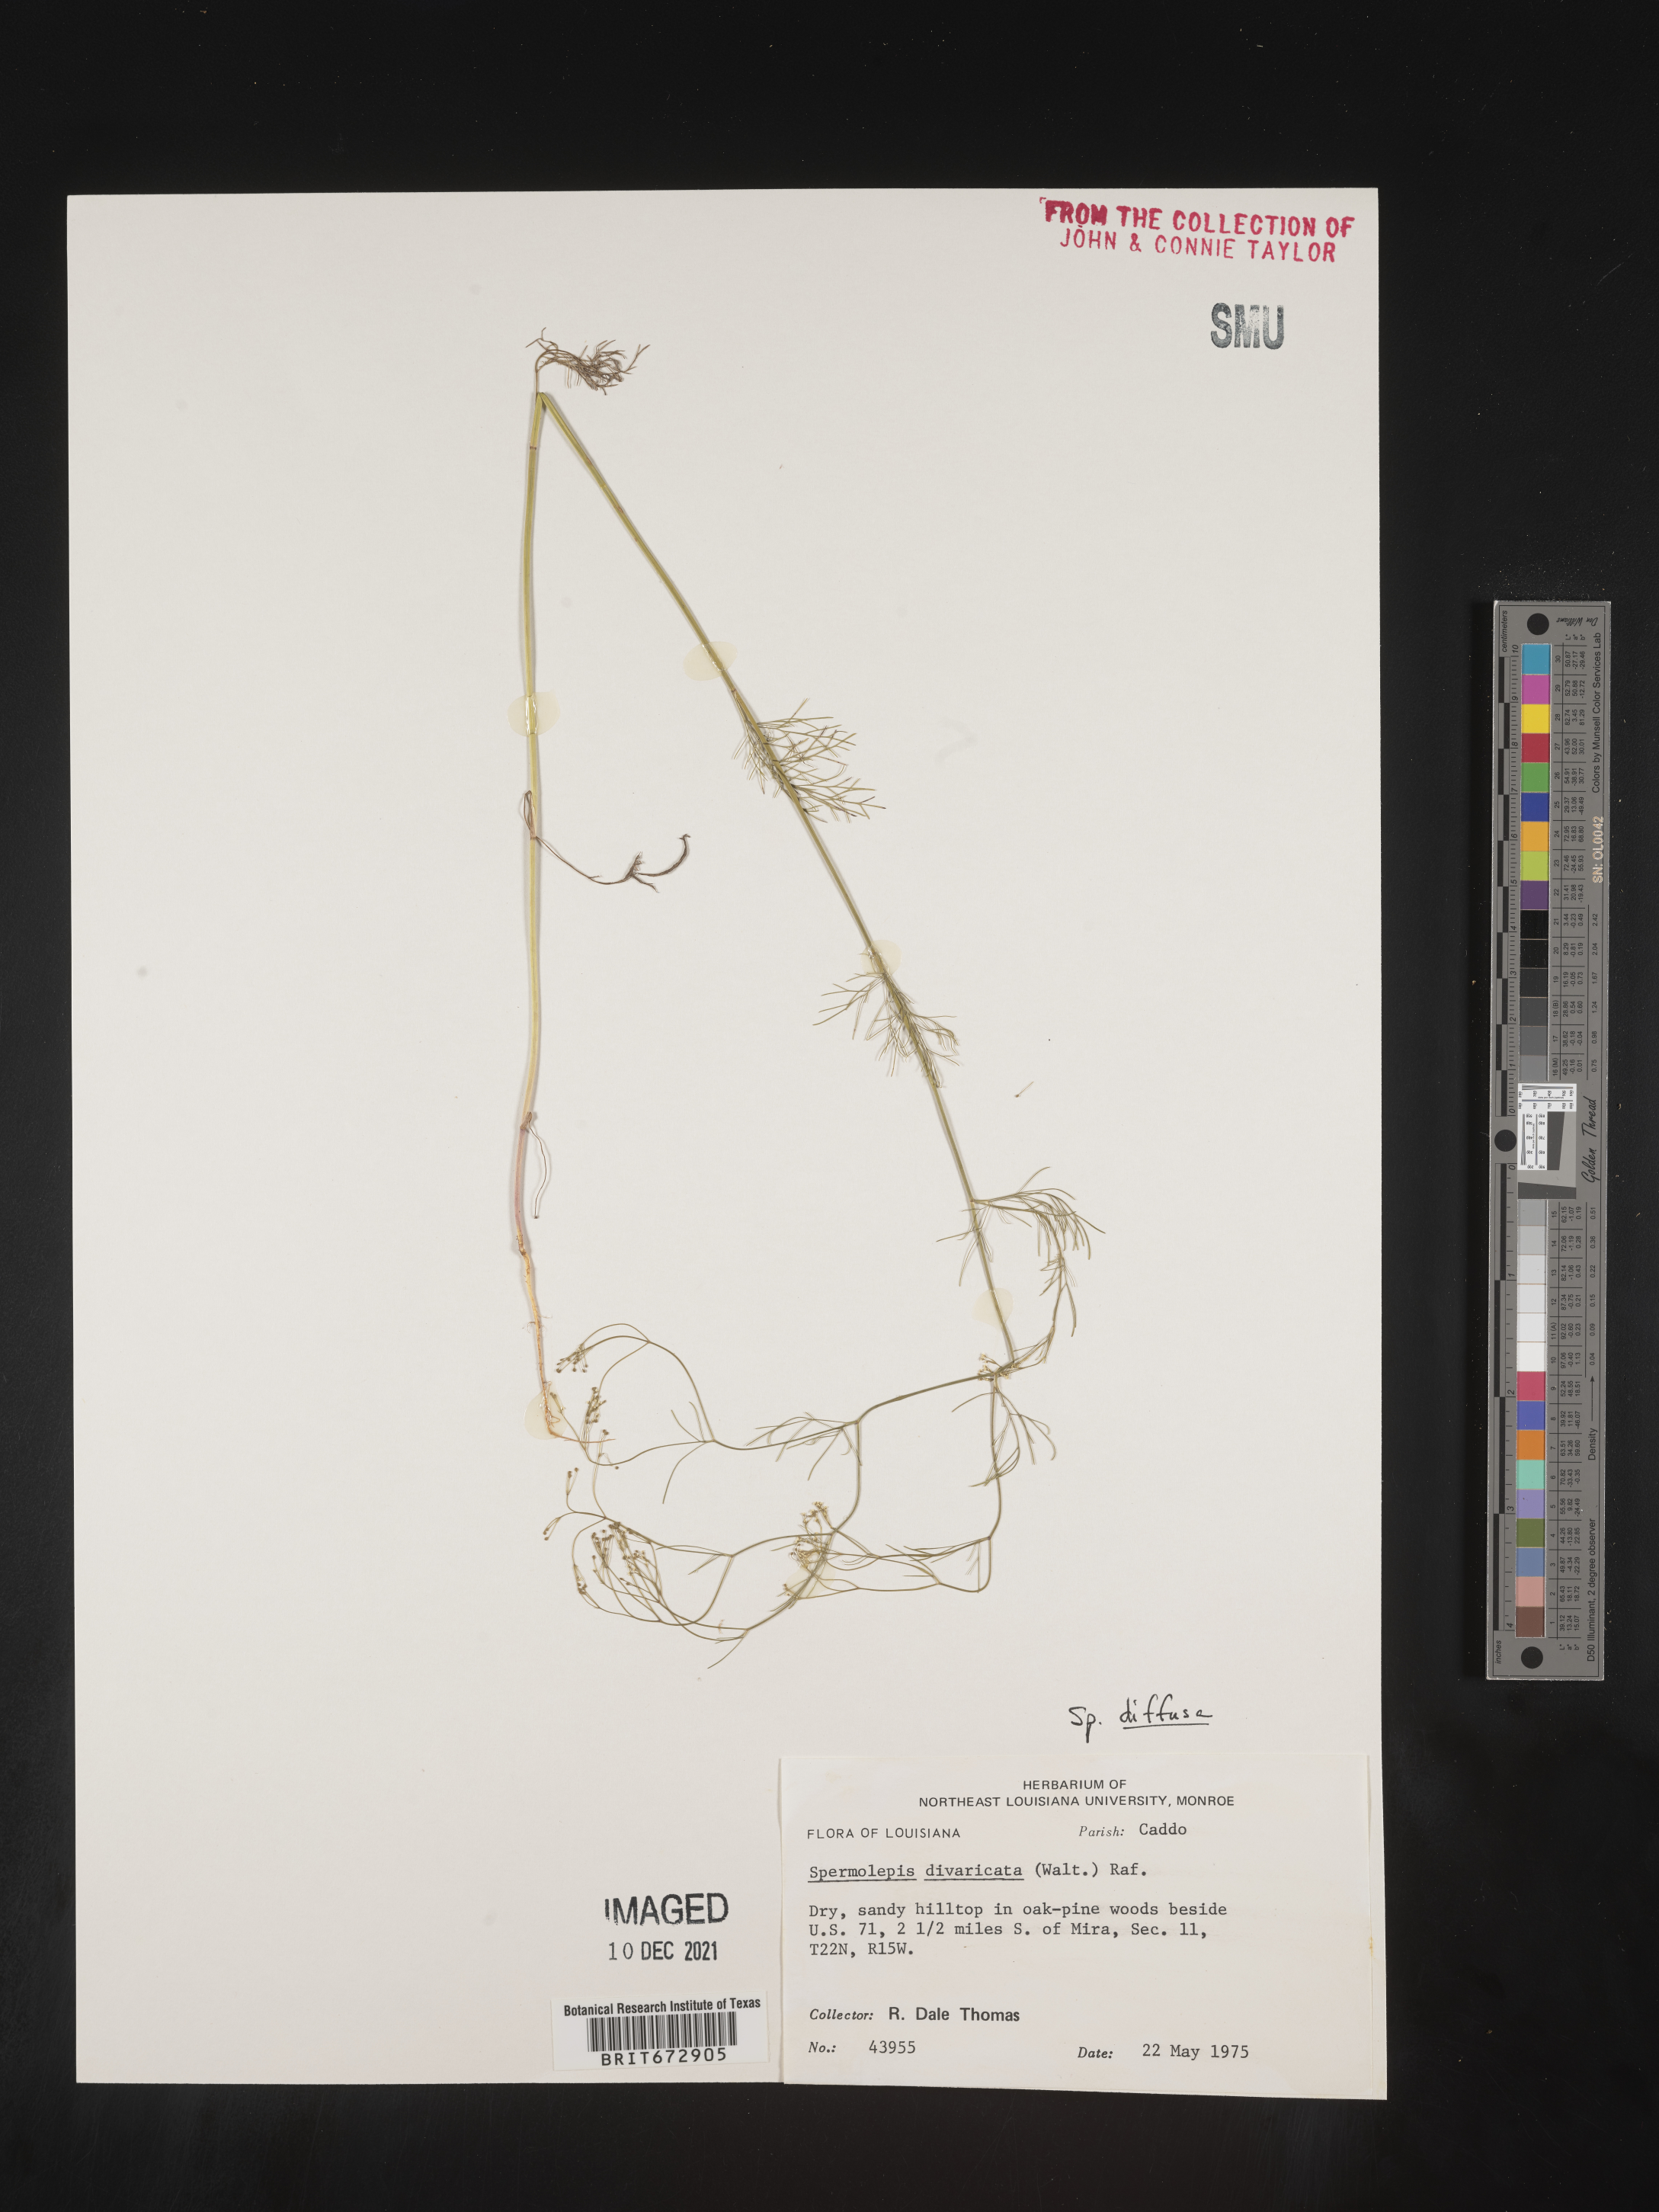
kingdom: Plantae
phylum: Tracheophyta
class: Magnoliopsida
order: Apiales
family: Apiaceae
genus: Spermolepis
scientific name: Spermolepis diffusa
